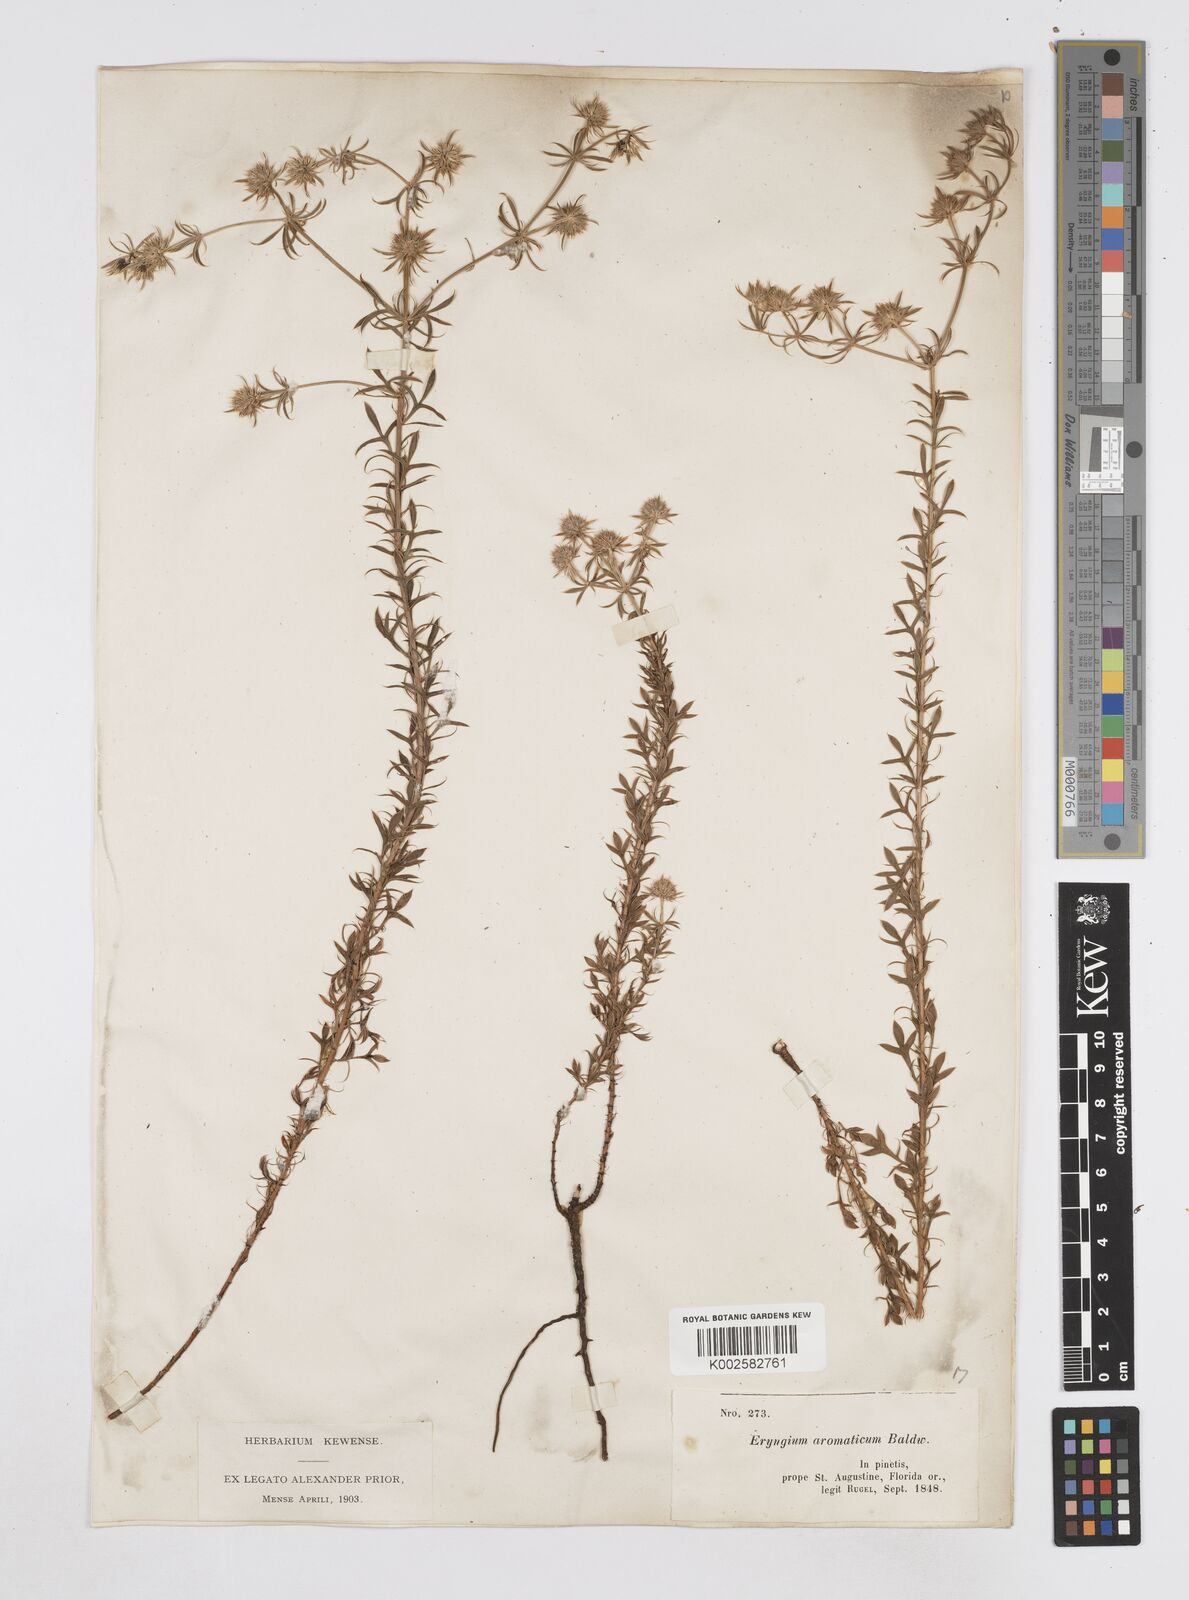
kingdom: Plantae
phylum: Tracheophyta
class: Magnoliopsida
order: Apiales
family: Apiaceae
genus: Eryngium
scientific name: Eryngium aromaticum
